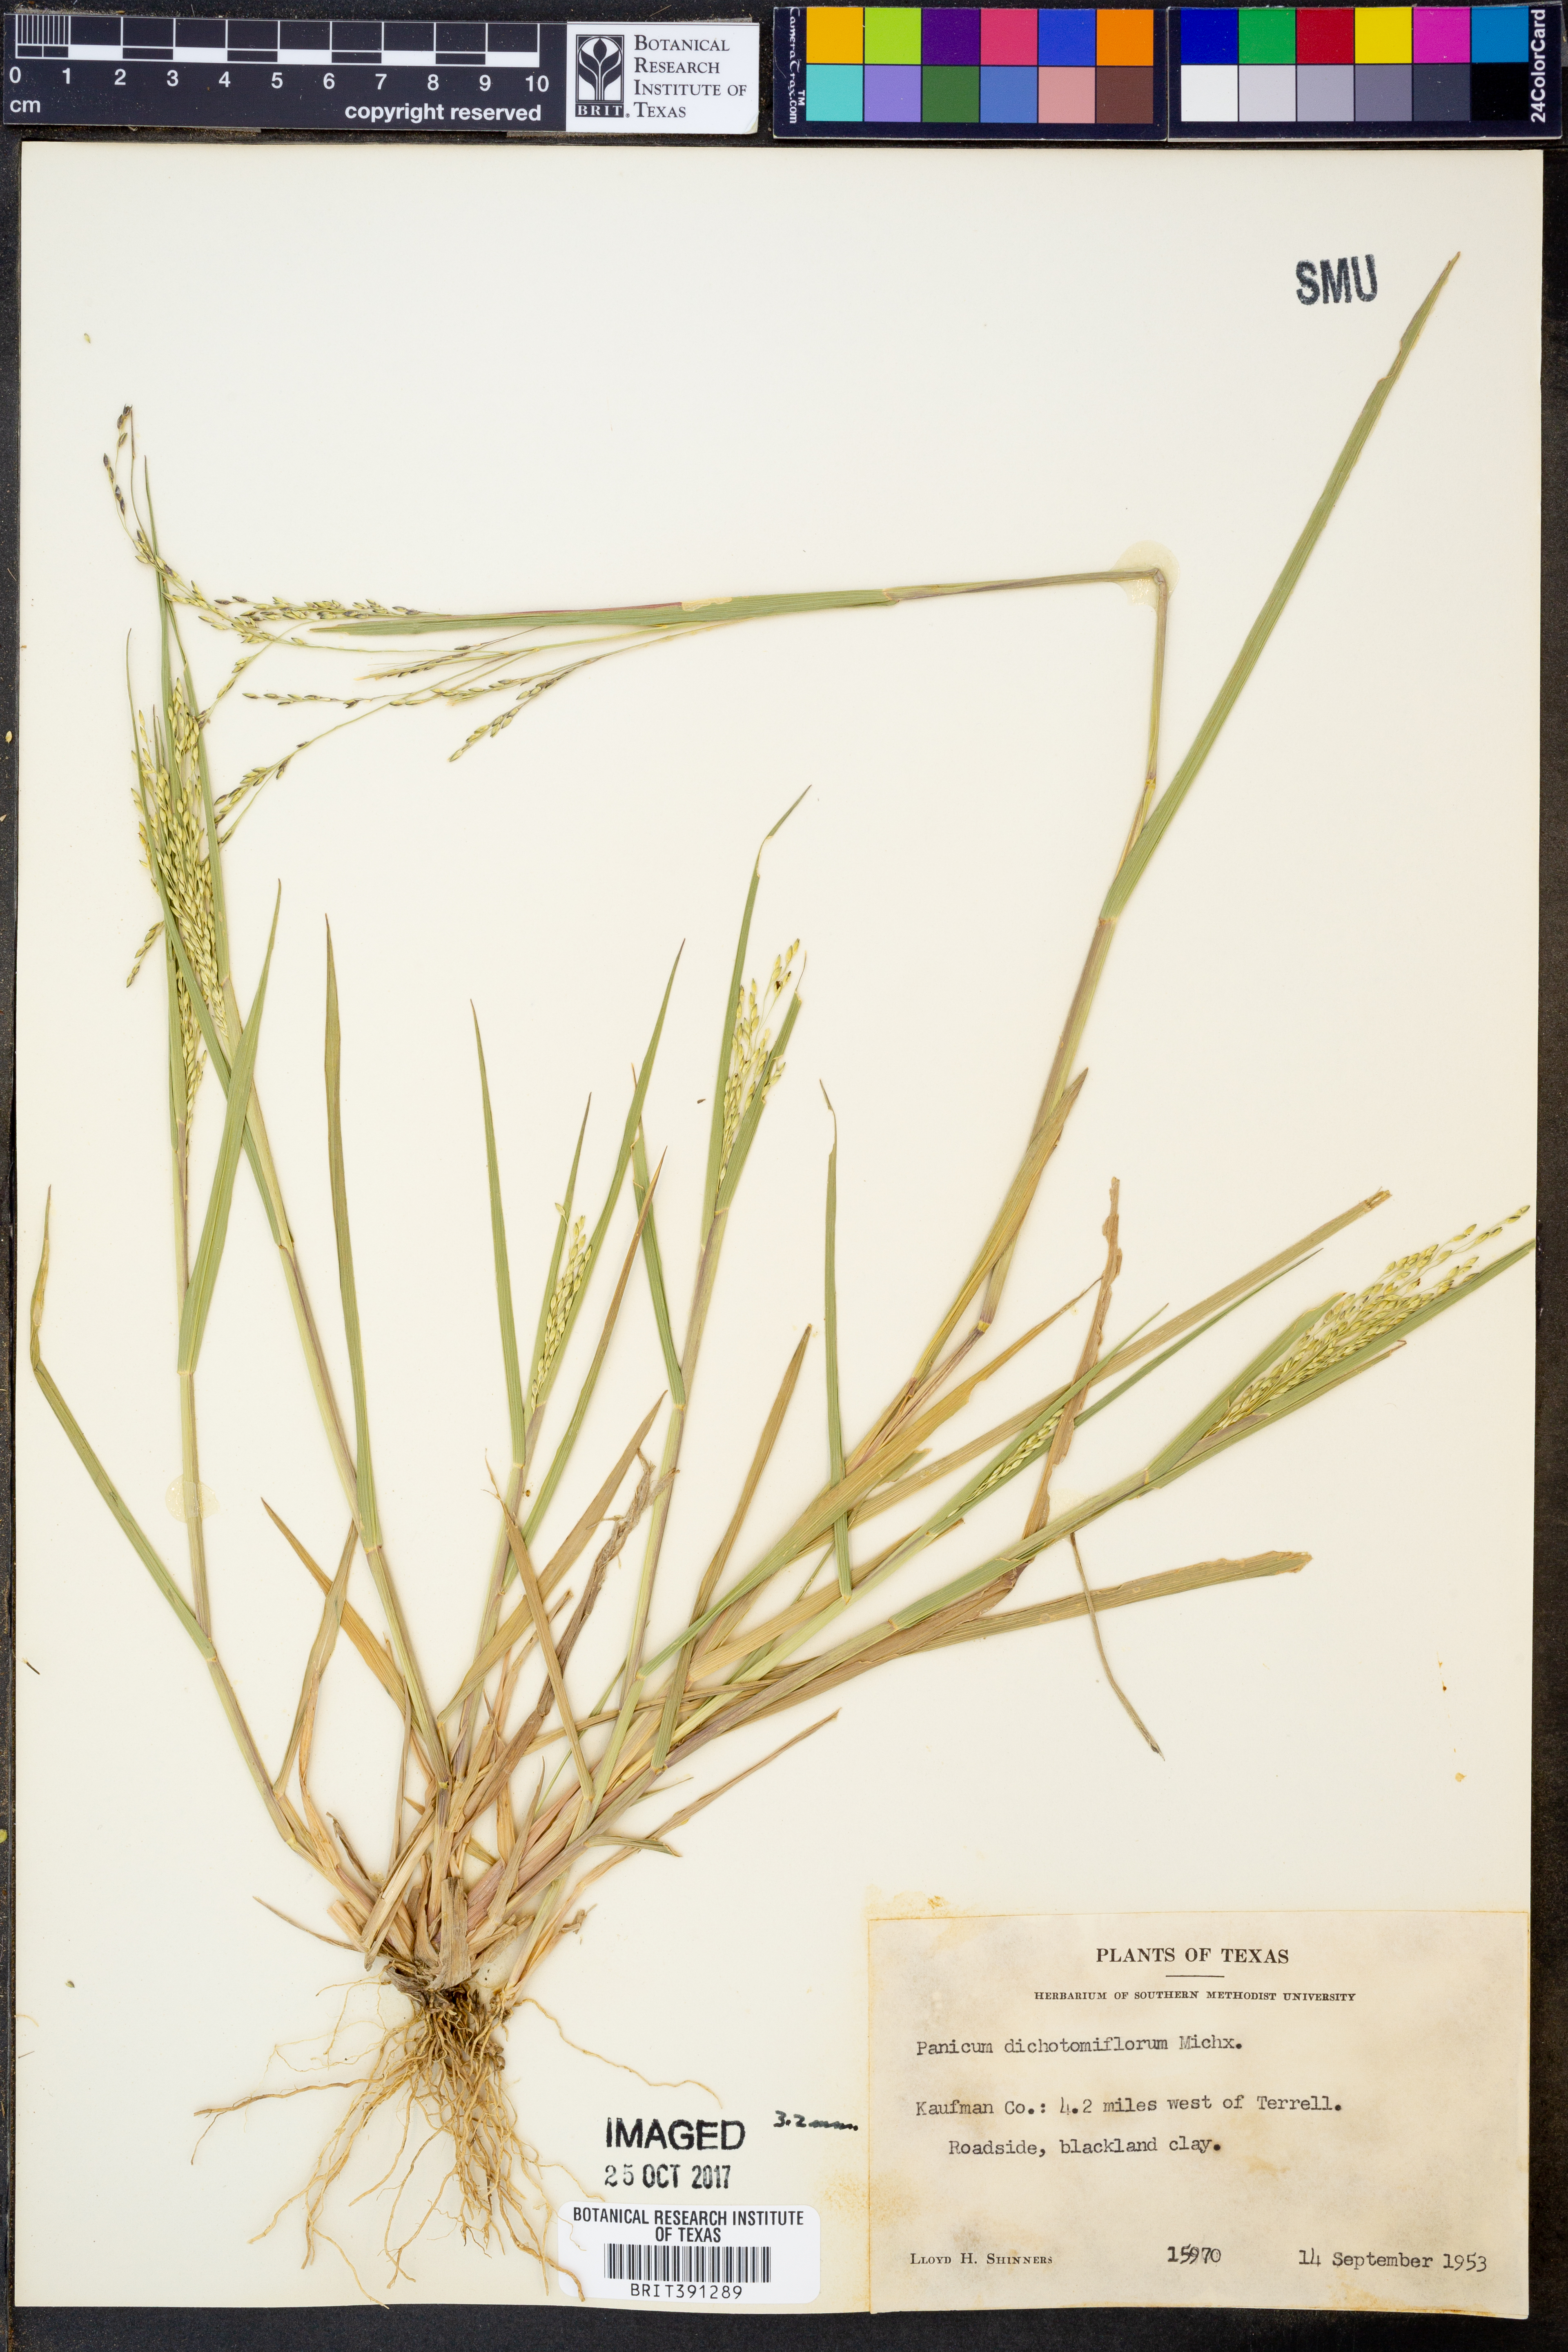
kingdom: Plantae
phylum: Tracheophyta
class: Liliopsida
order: Poales
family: Poaceae
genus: Panicum
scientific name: Panicum dichotomiflorum
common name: Autumn millet
